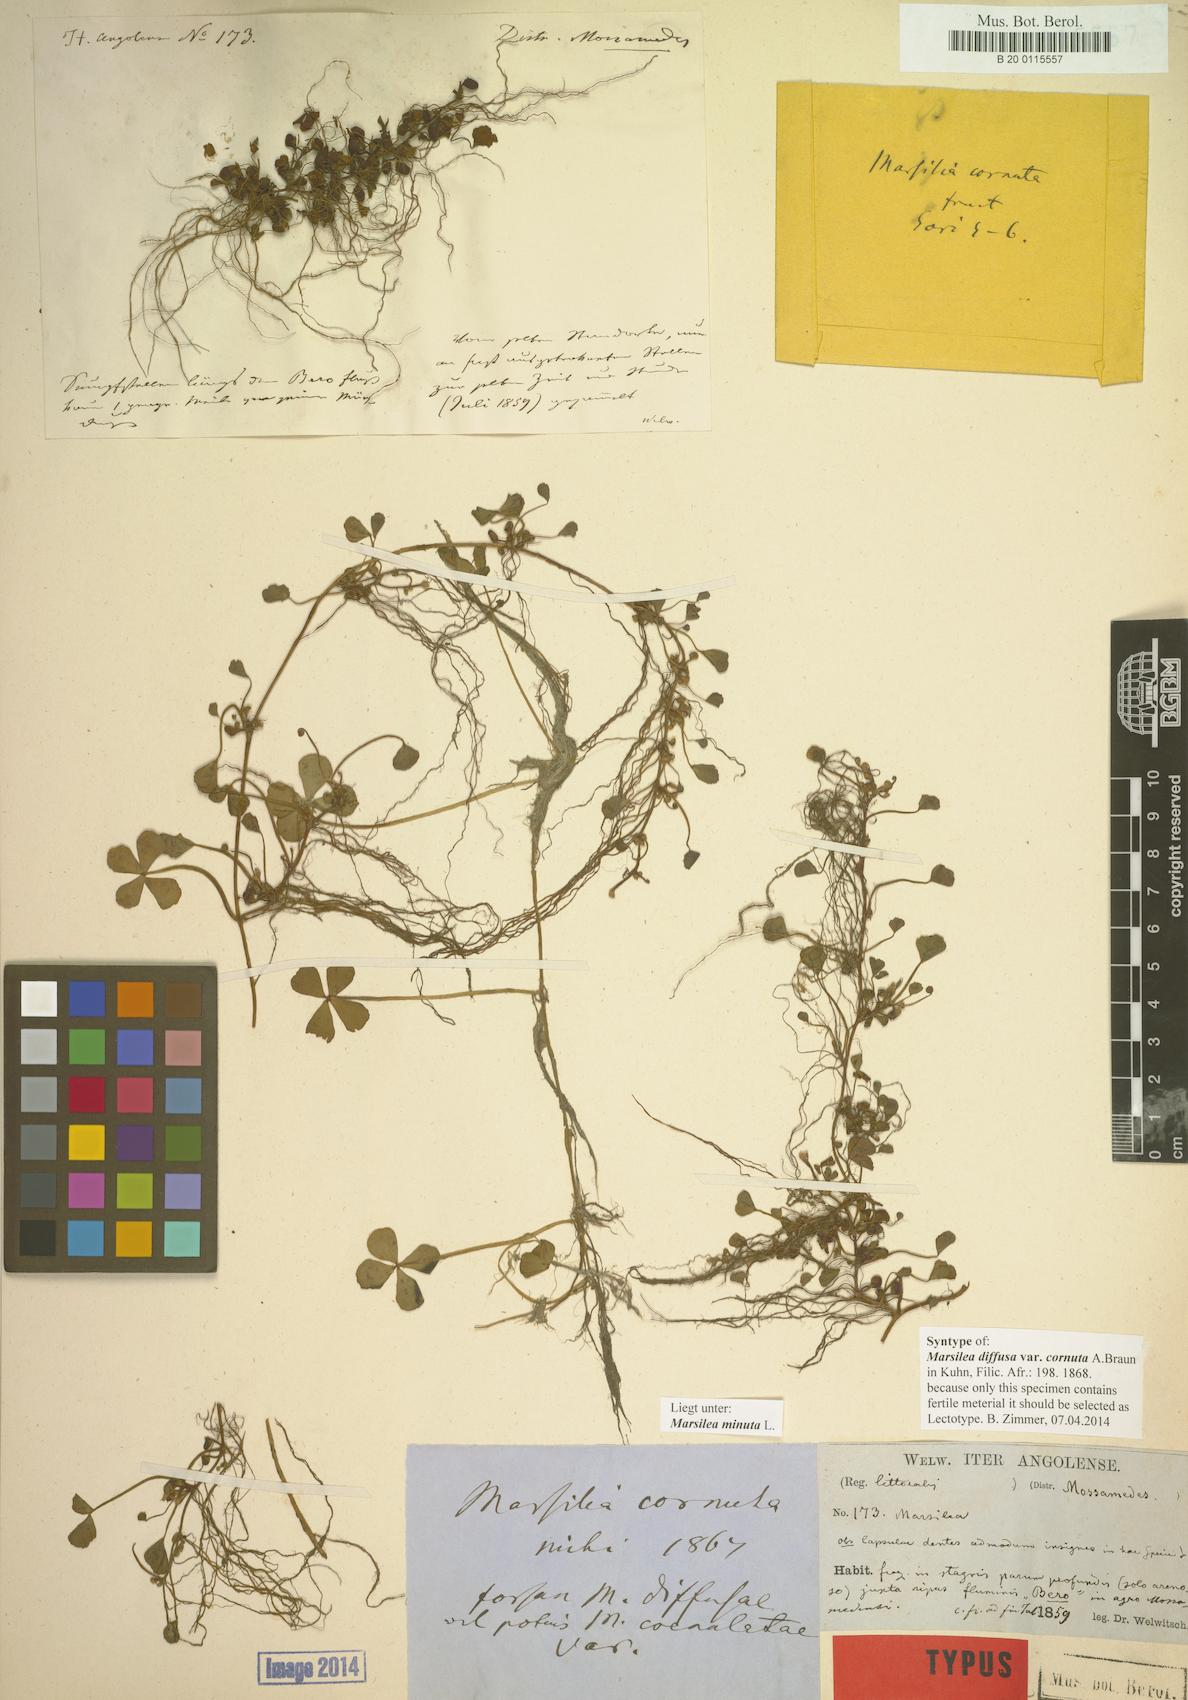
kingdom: Plantae
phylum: Tracheophyta
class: Polypodiopsida
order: Salviniales
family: Marsileaceae
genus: Marsilea
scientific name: Marsilea minuta
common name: Dwarf waterclover
